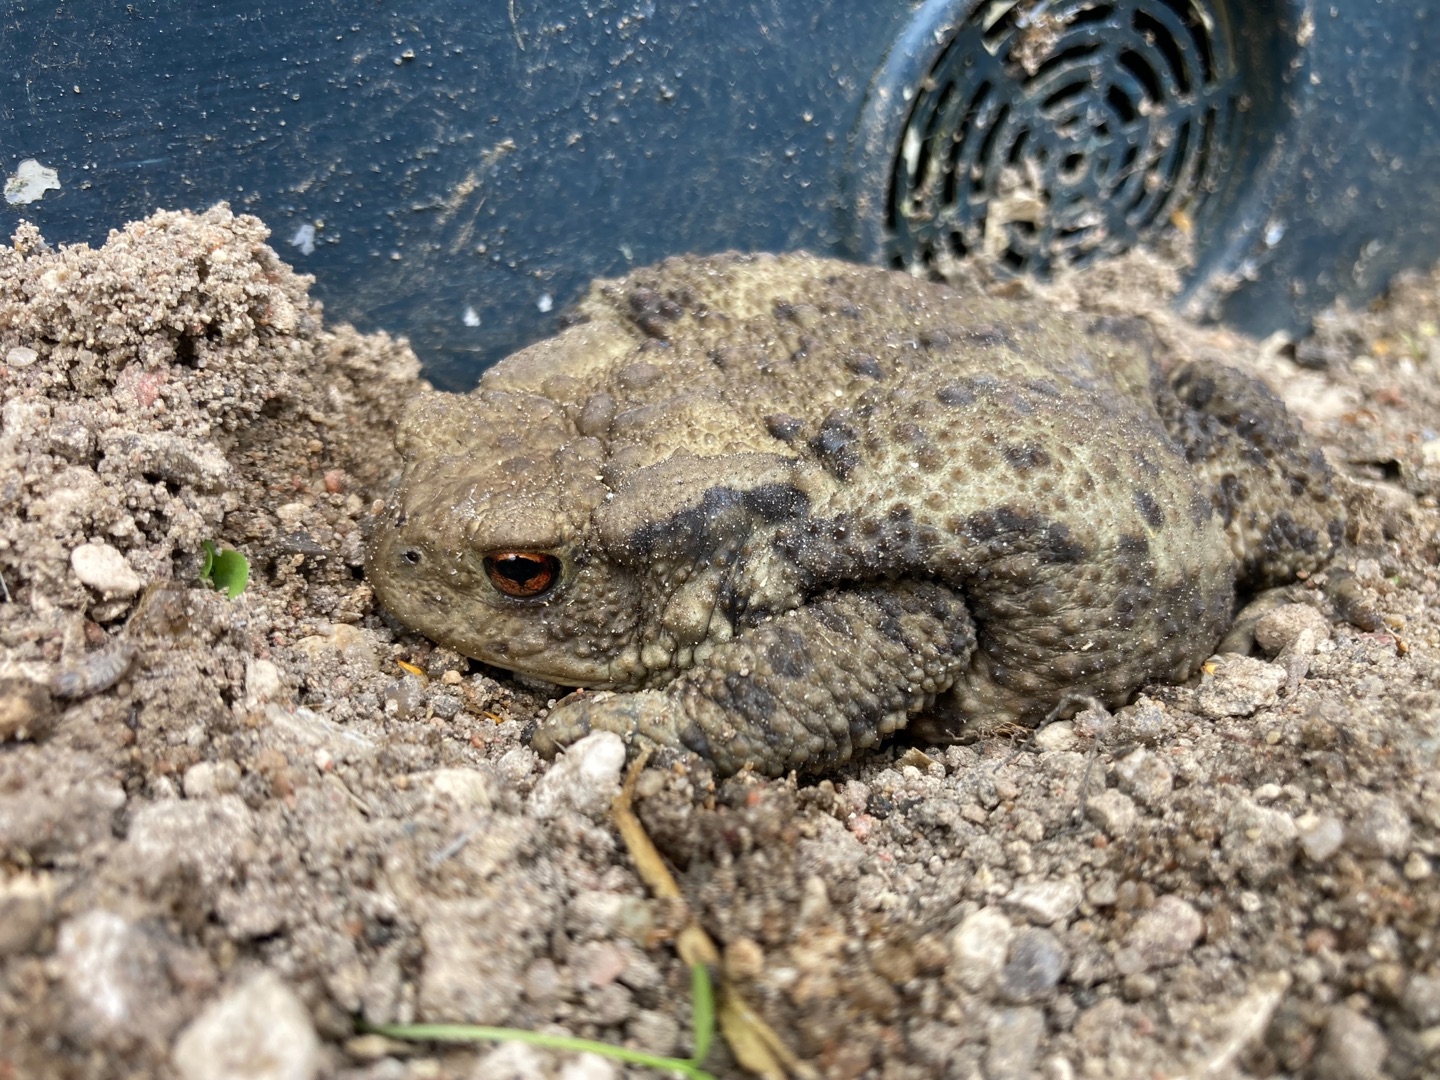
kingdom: Animalia
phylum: Chordata
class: Amphibia
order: Anura
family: Bufonidae
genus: Bufo
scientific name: Bufo bufo
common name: Skrubtudse
